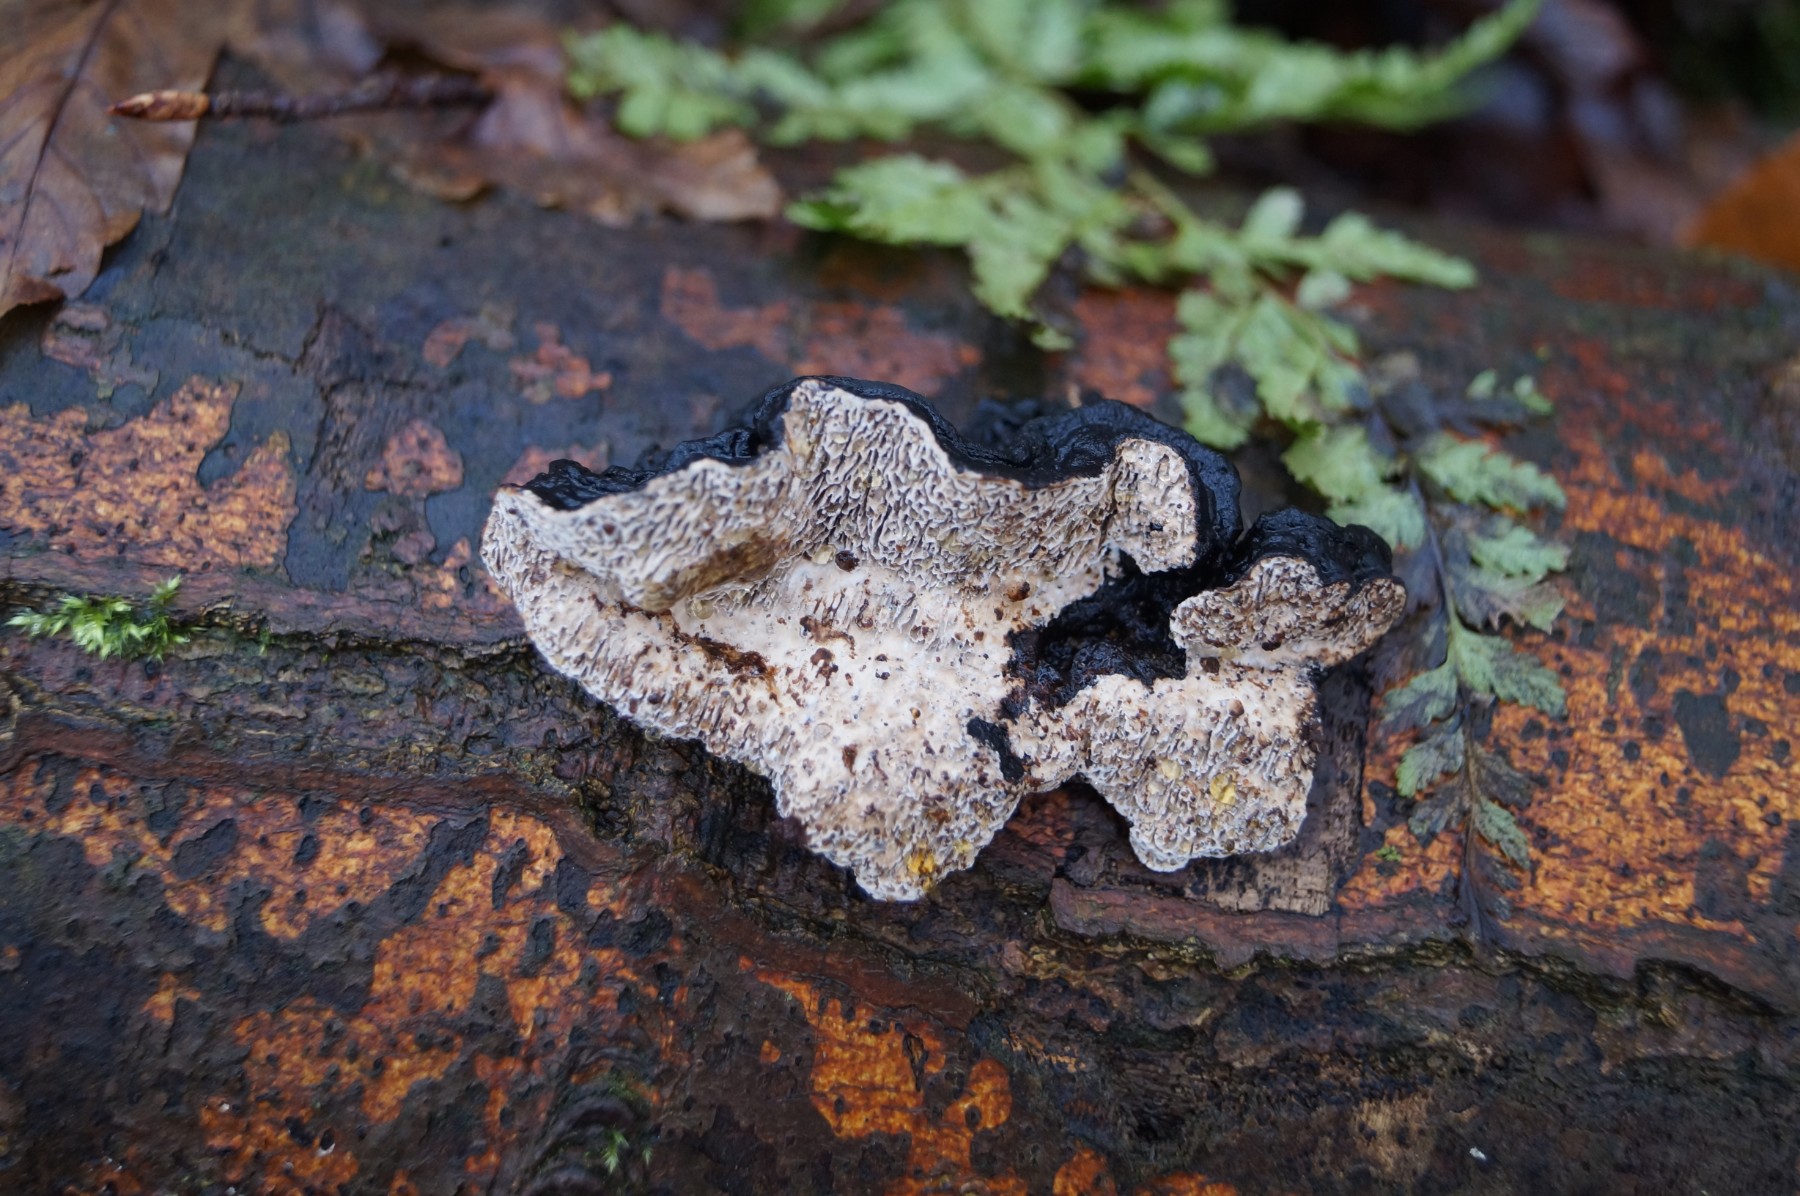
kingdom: Fungi
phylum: Basidiomycota
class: Agaricomycetes
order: Polyporales
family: Polyporaceae
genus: Podofomes
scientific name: Podofomes mollis
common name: blød begporesvamp
